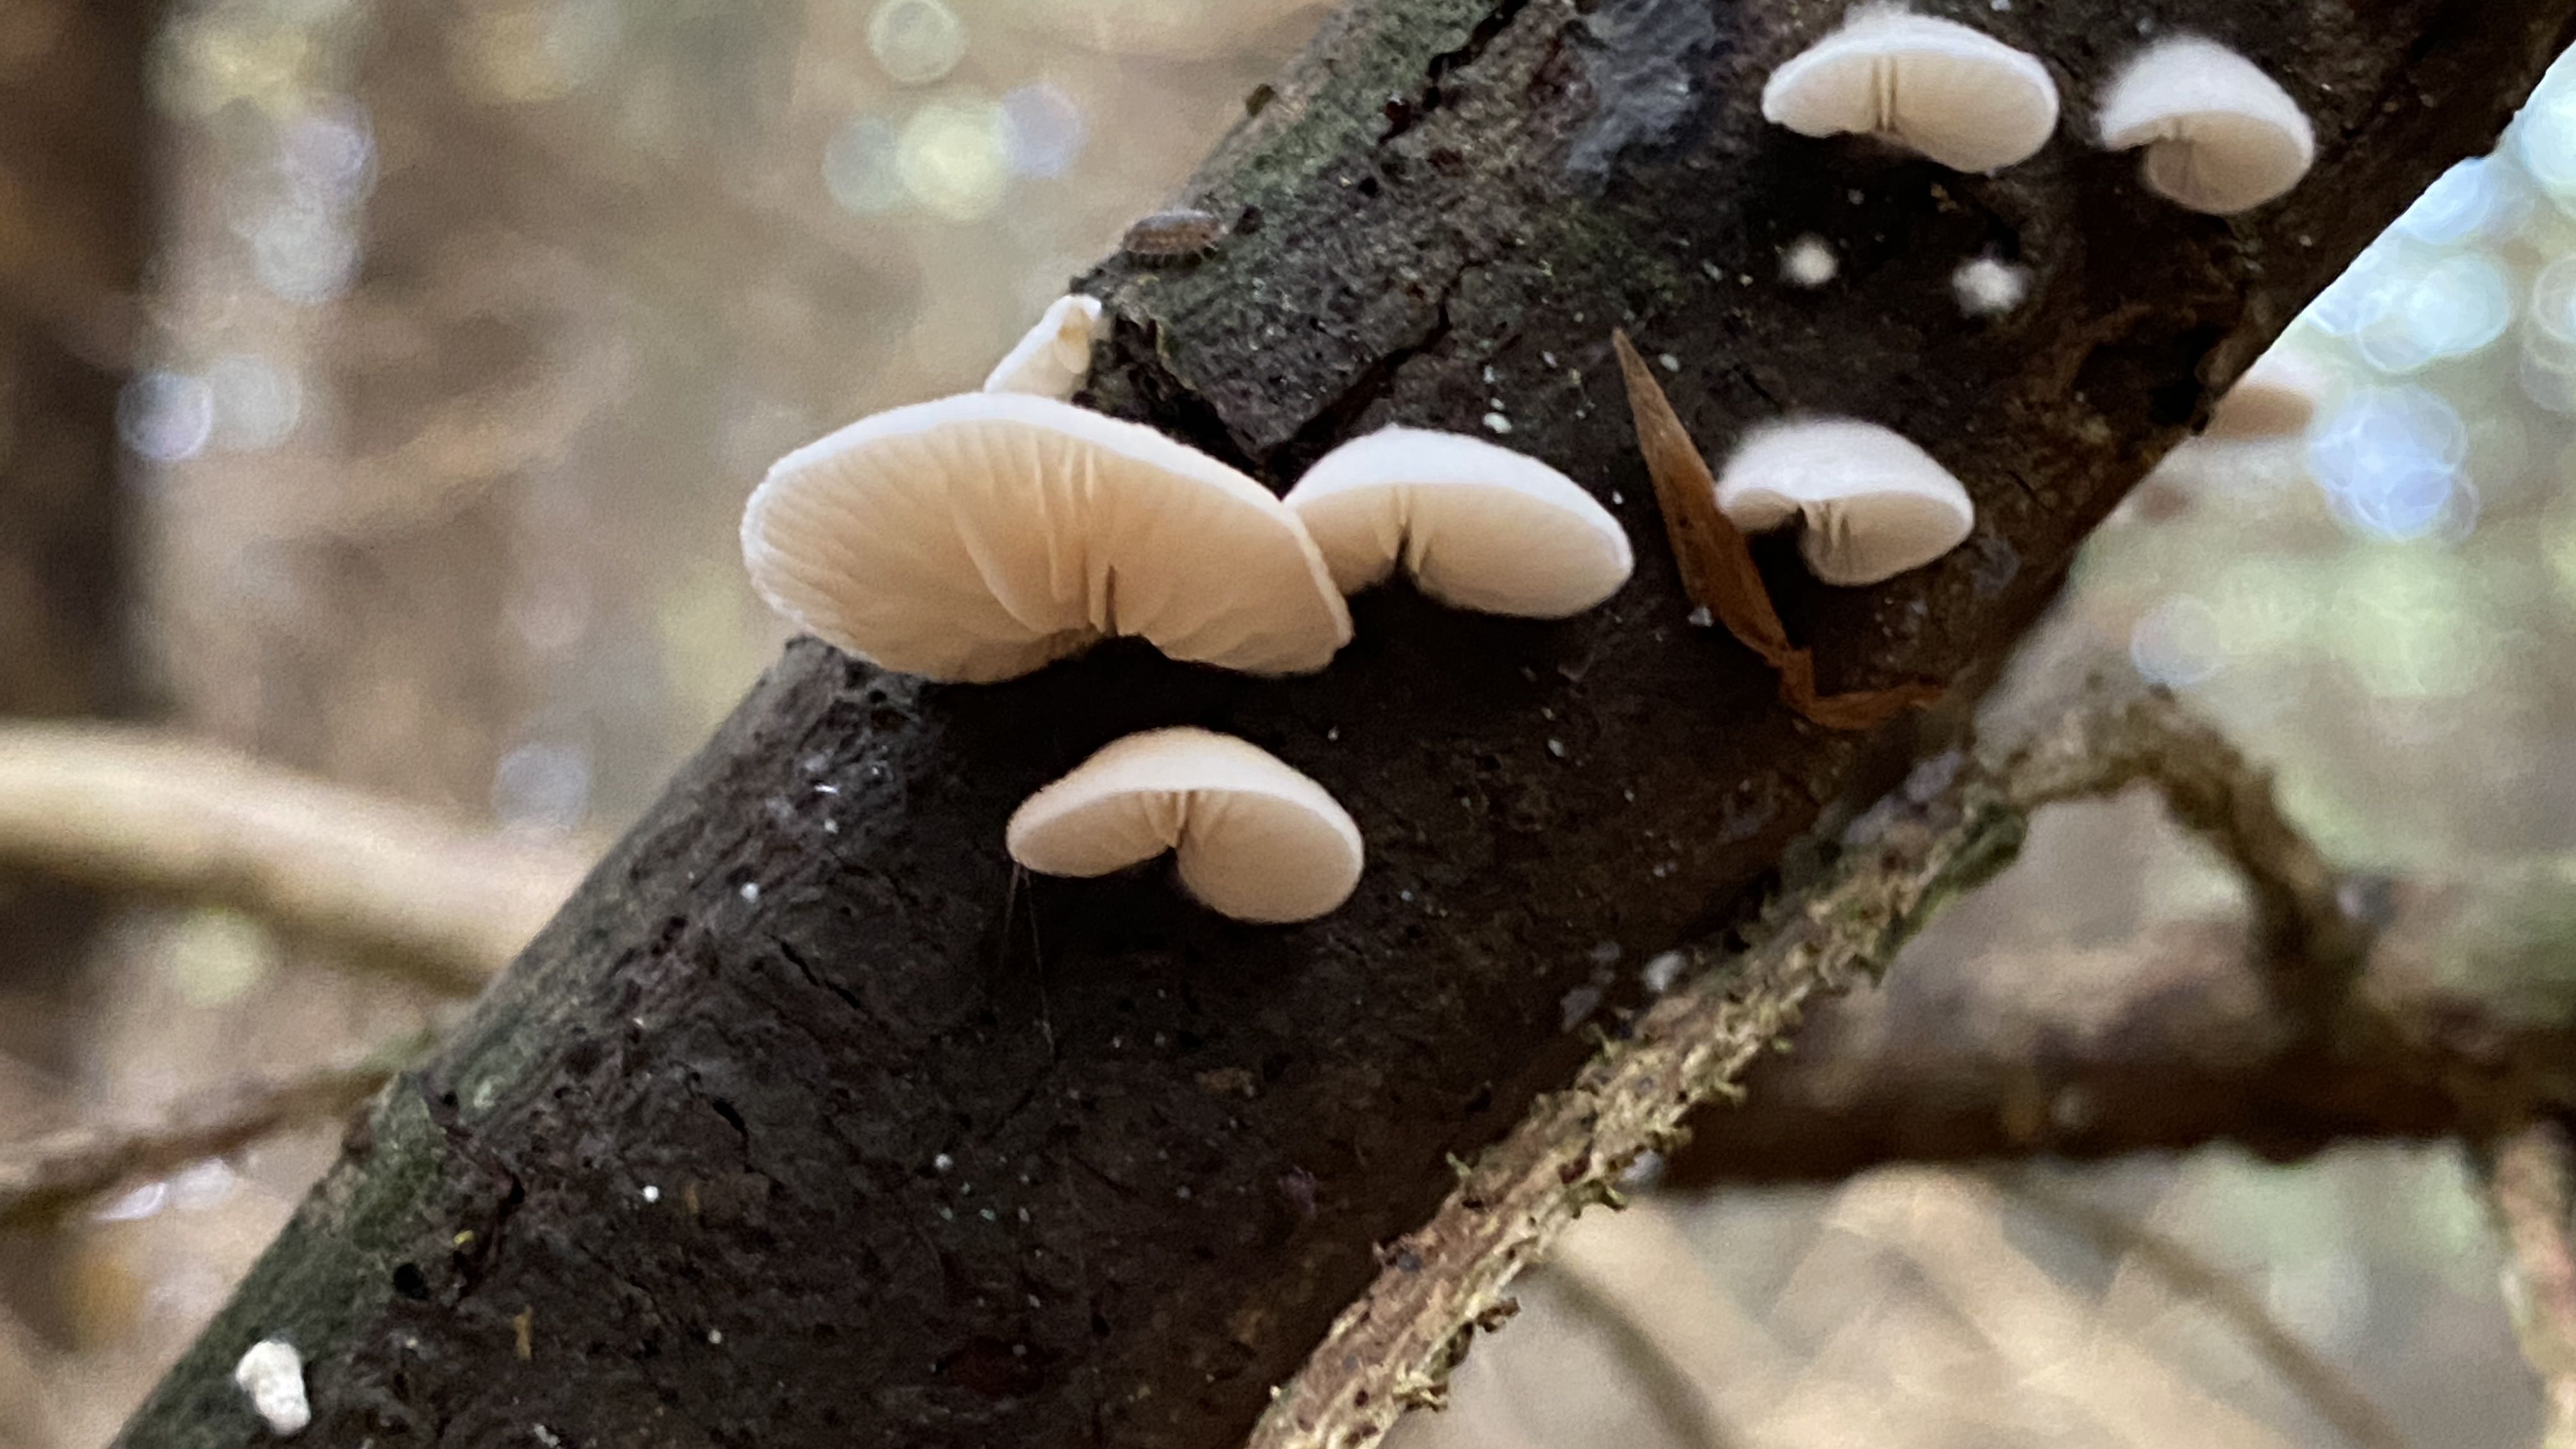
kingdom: Fungi
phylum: Basidiomycota
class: Agaricomycetes
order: Agaricales
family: Crepidotaceae
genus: Crepidotus
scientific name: Crepidotus
